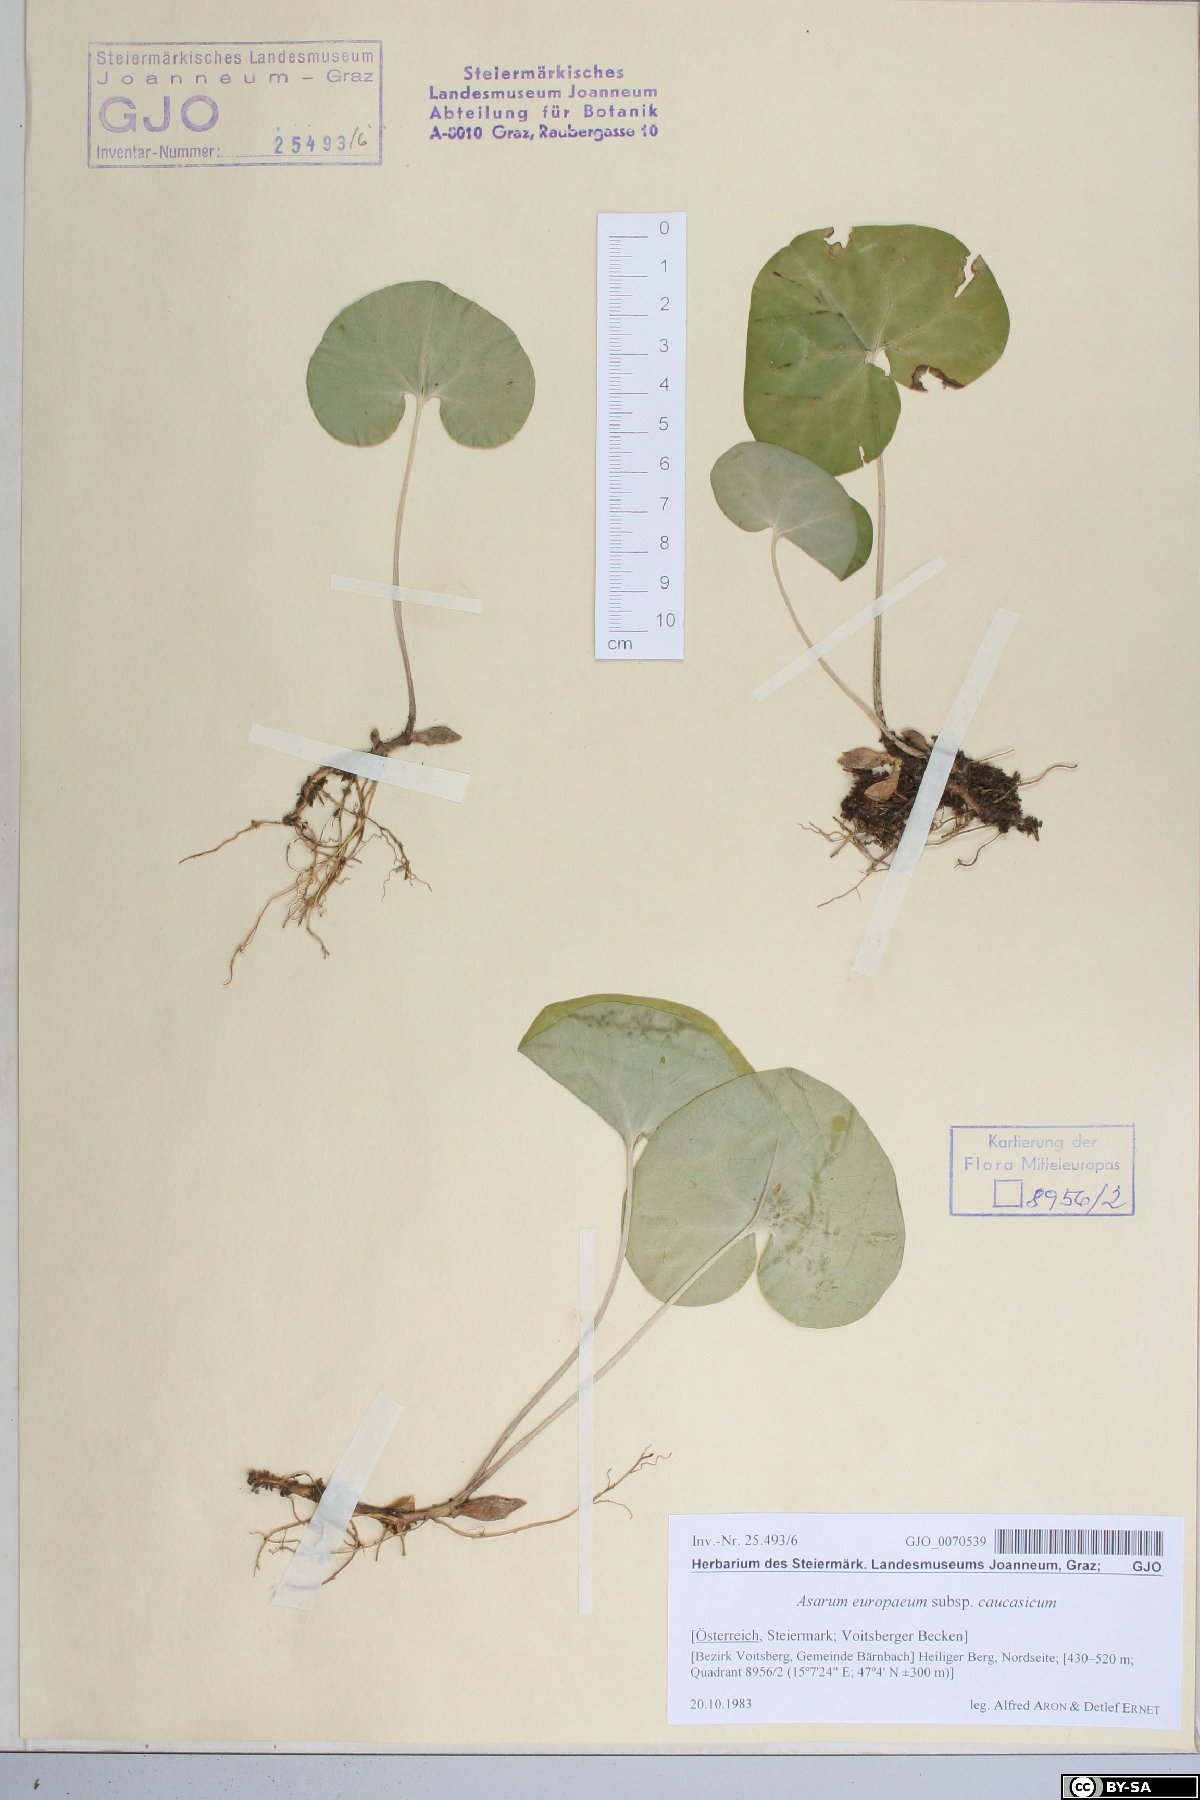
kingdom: Plantae
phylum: Tracheophyta
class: Magnoliopsida
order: Piperales
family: Aristolochiaceae
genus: Asarum
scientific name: Asarum europaeum
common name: Asarabacca
